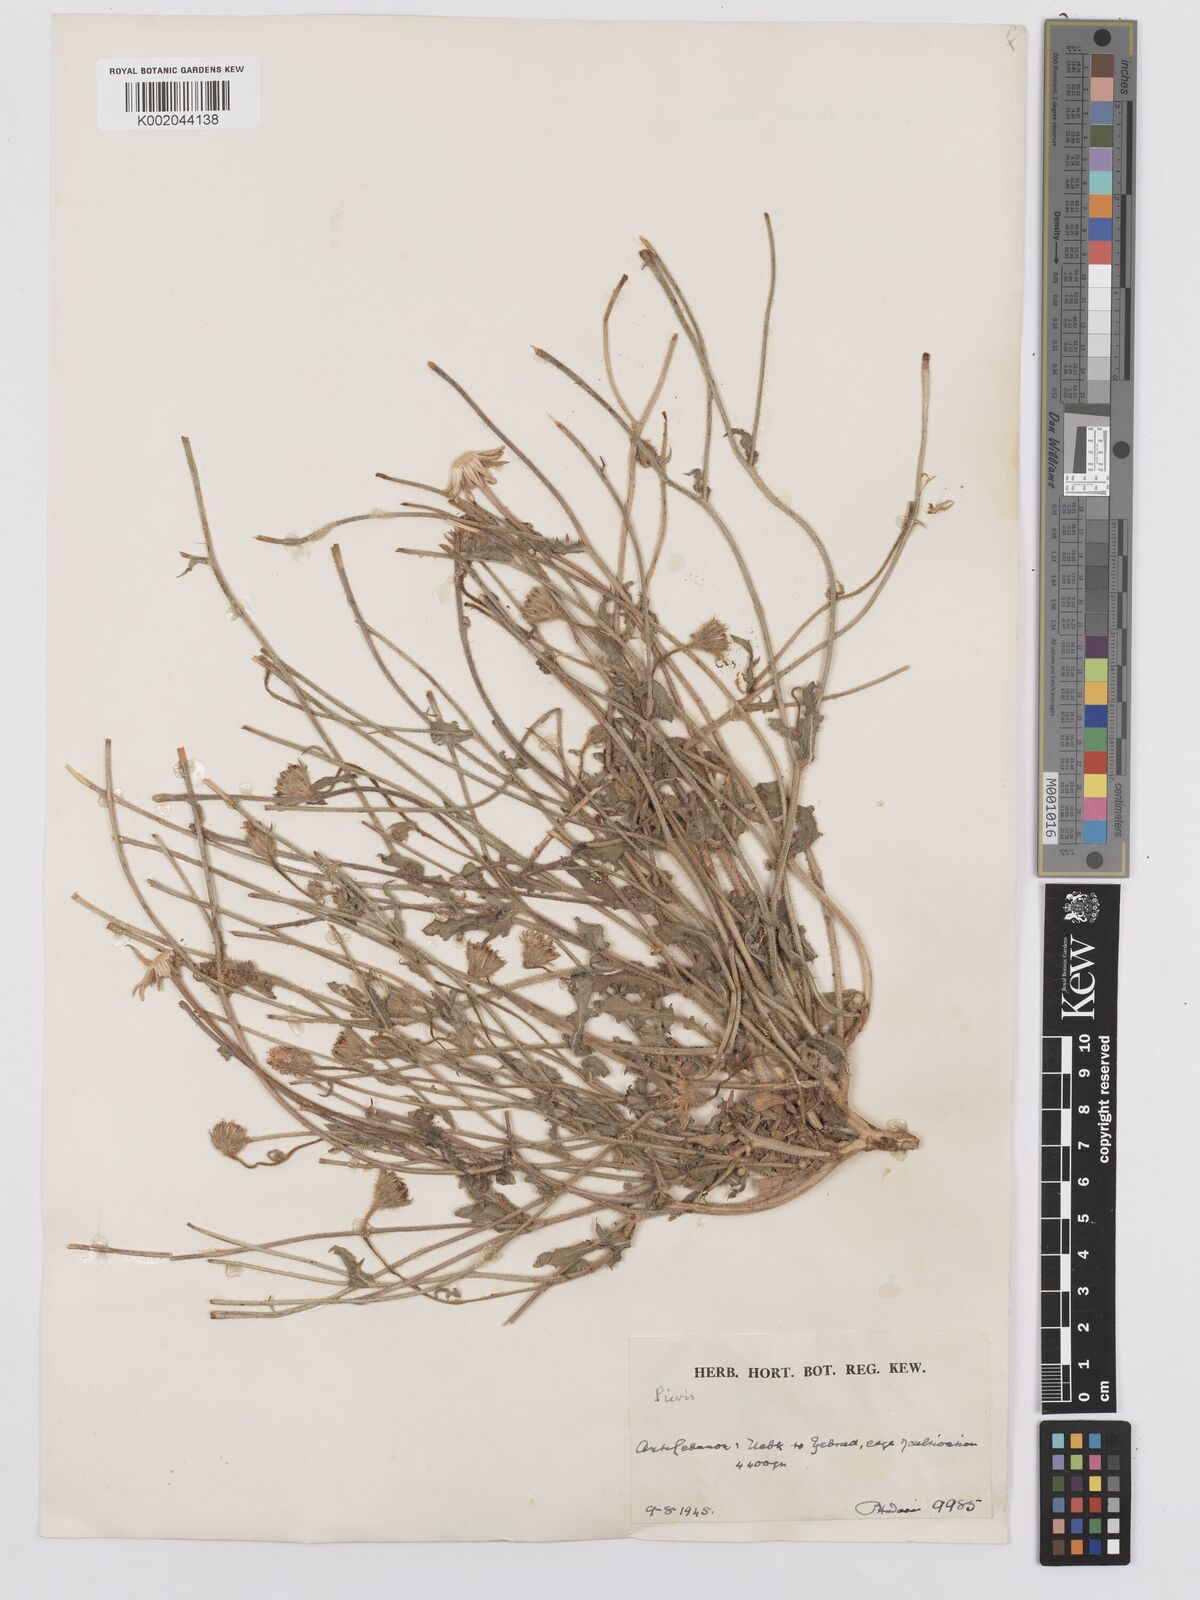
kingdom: Plantae
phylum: Tracheophyta
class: Magnoliopsida
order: Asterales
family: Asteraceae
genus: Picris
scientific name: Picris
